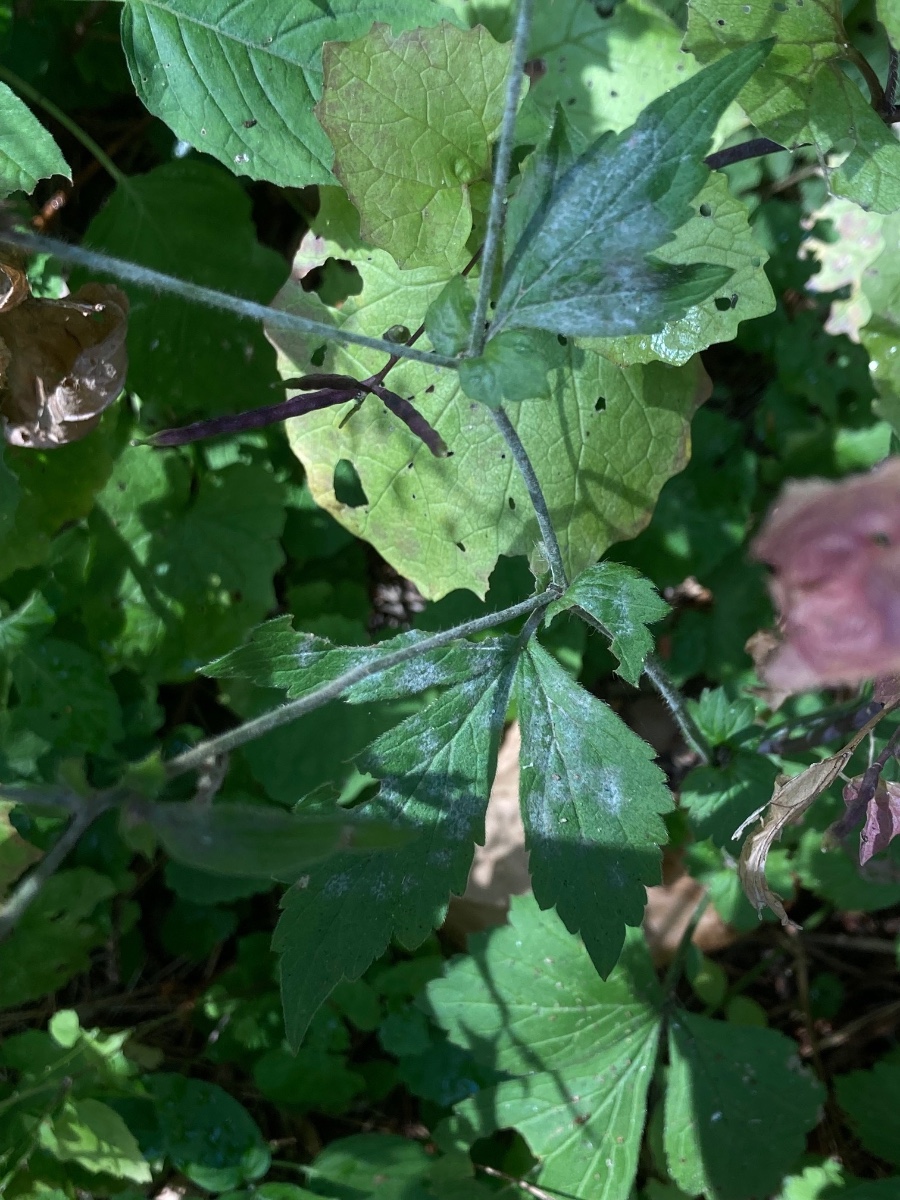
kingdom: Fungi
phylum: Ascomycota
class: Leotiomycetes
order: Helotiales
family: Erysiphaceae
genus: Podosphaera
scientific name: Podosphaera aphanis
